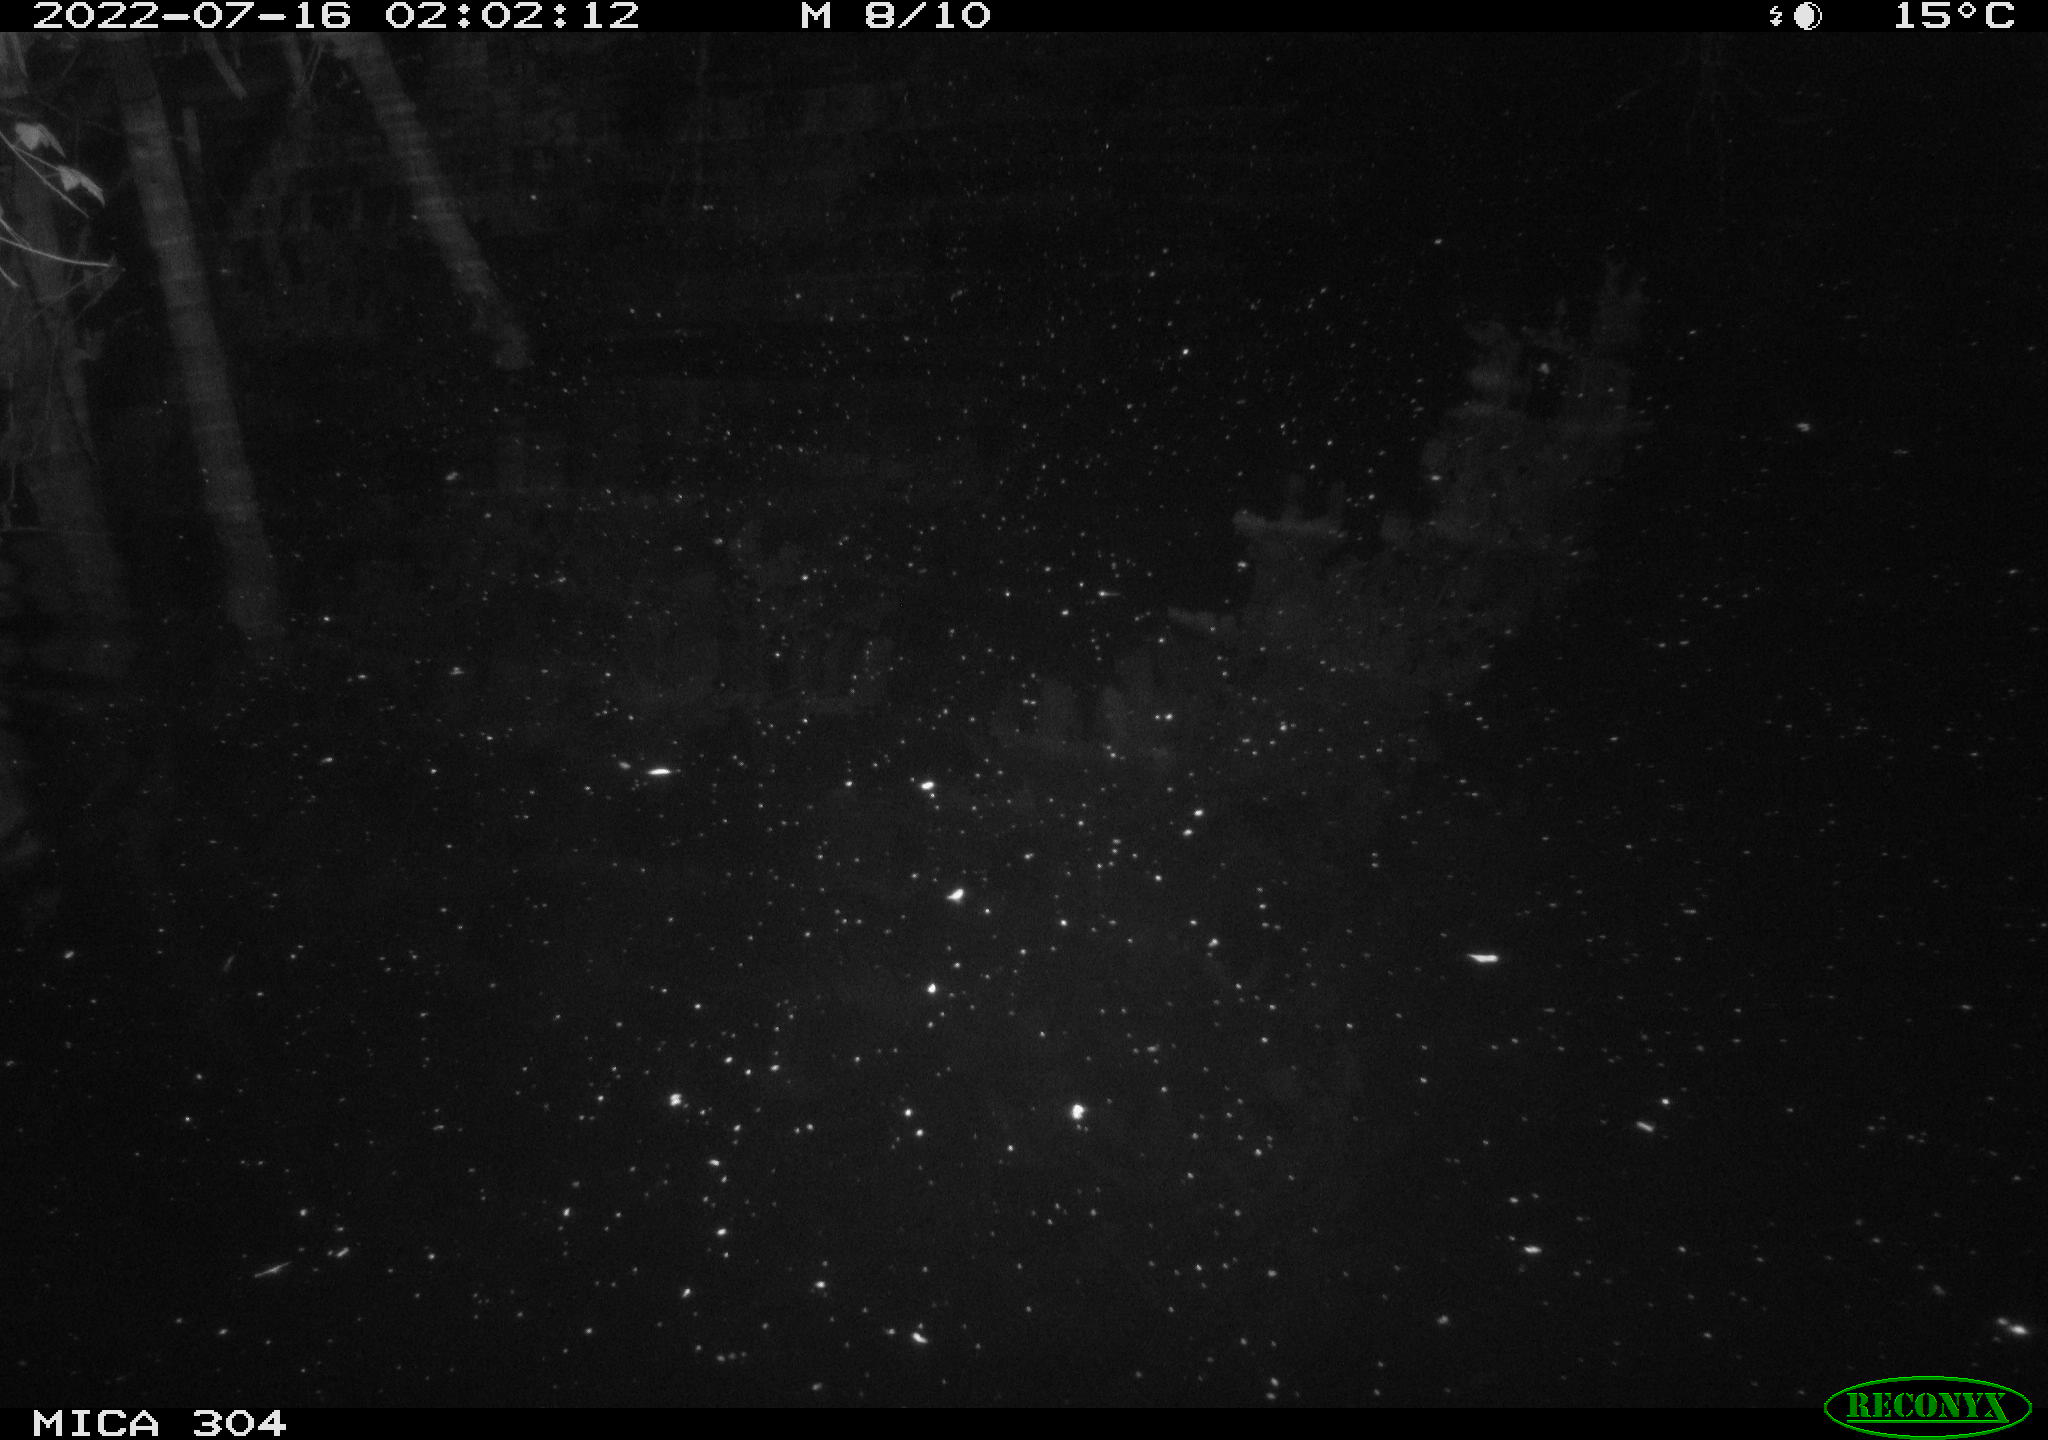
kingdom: Animalia
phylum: Chordata
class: Aves
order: Anseriformes
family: Anatidae
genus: Anas
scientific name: Anas platyrhynchos
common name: Mallard
